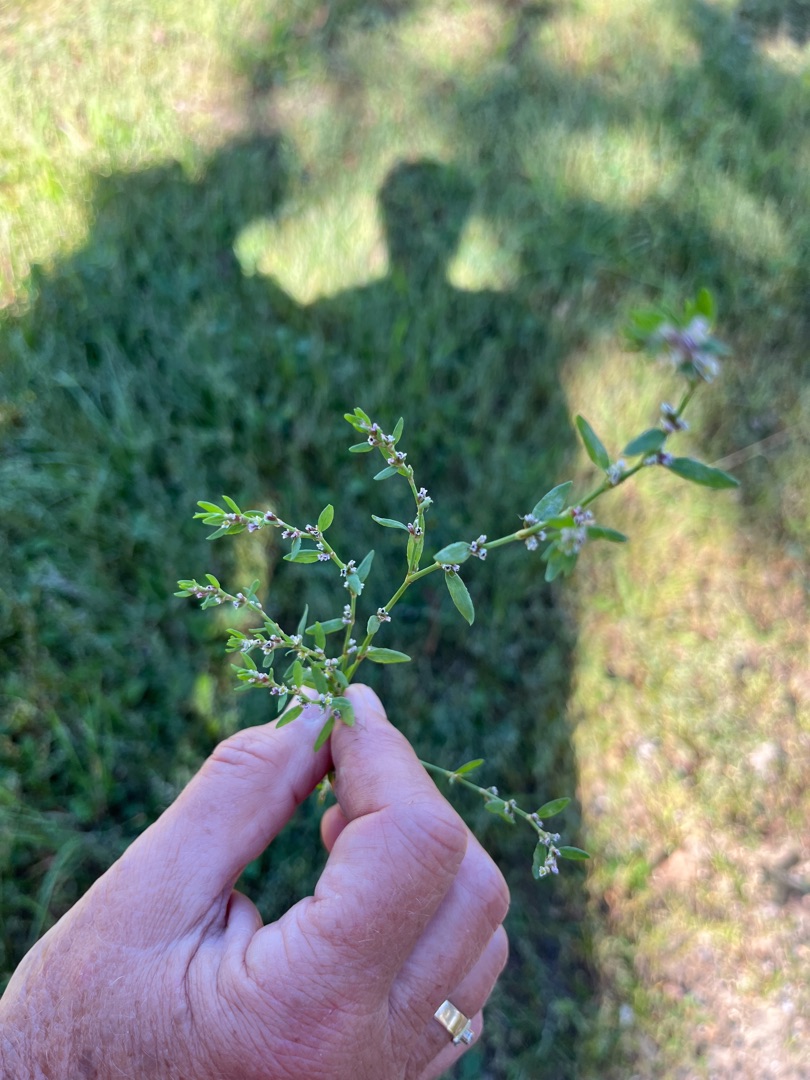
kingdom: Plantae
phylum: Tracheophyta
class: Magnoliopsida
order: Caryophyllales
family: Polygonaceae
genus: Polygonum
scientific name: Polygonum aviculare
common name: Vej-pileurt
